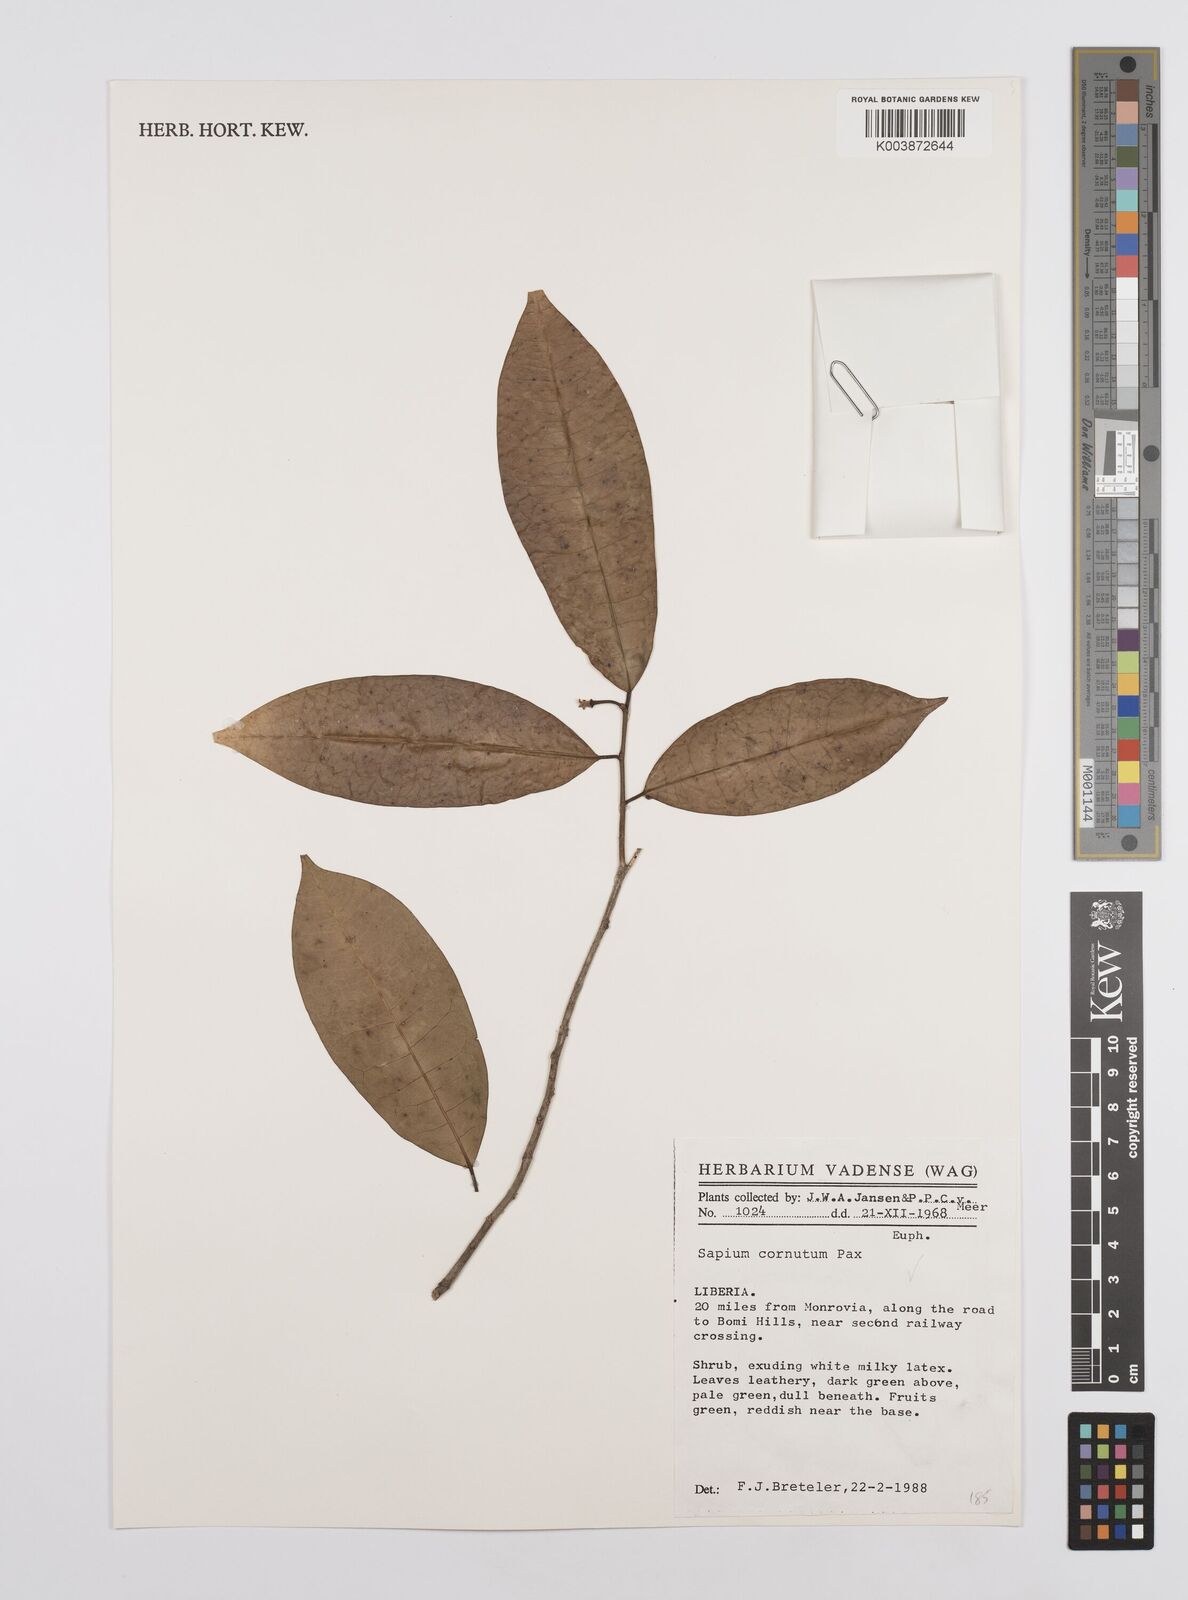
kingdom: Plantae
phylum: Tracheophyta
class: Magnoliopsida
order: Malpighiales
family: Euphorbiaceae
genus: Sclerocroton
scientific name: Sclerocroton carterianus
